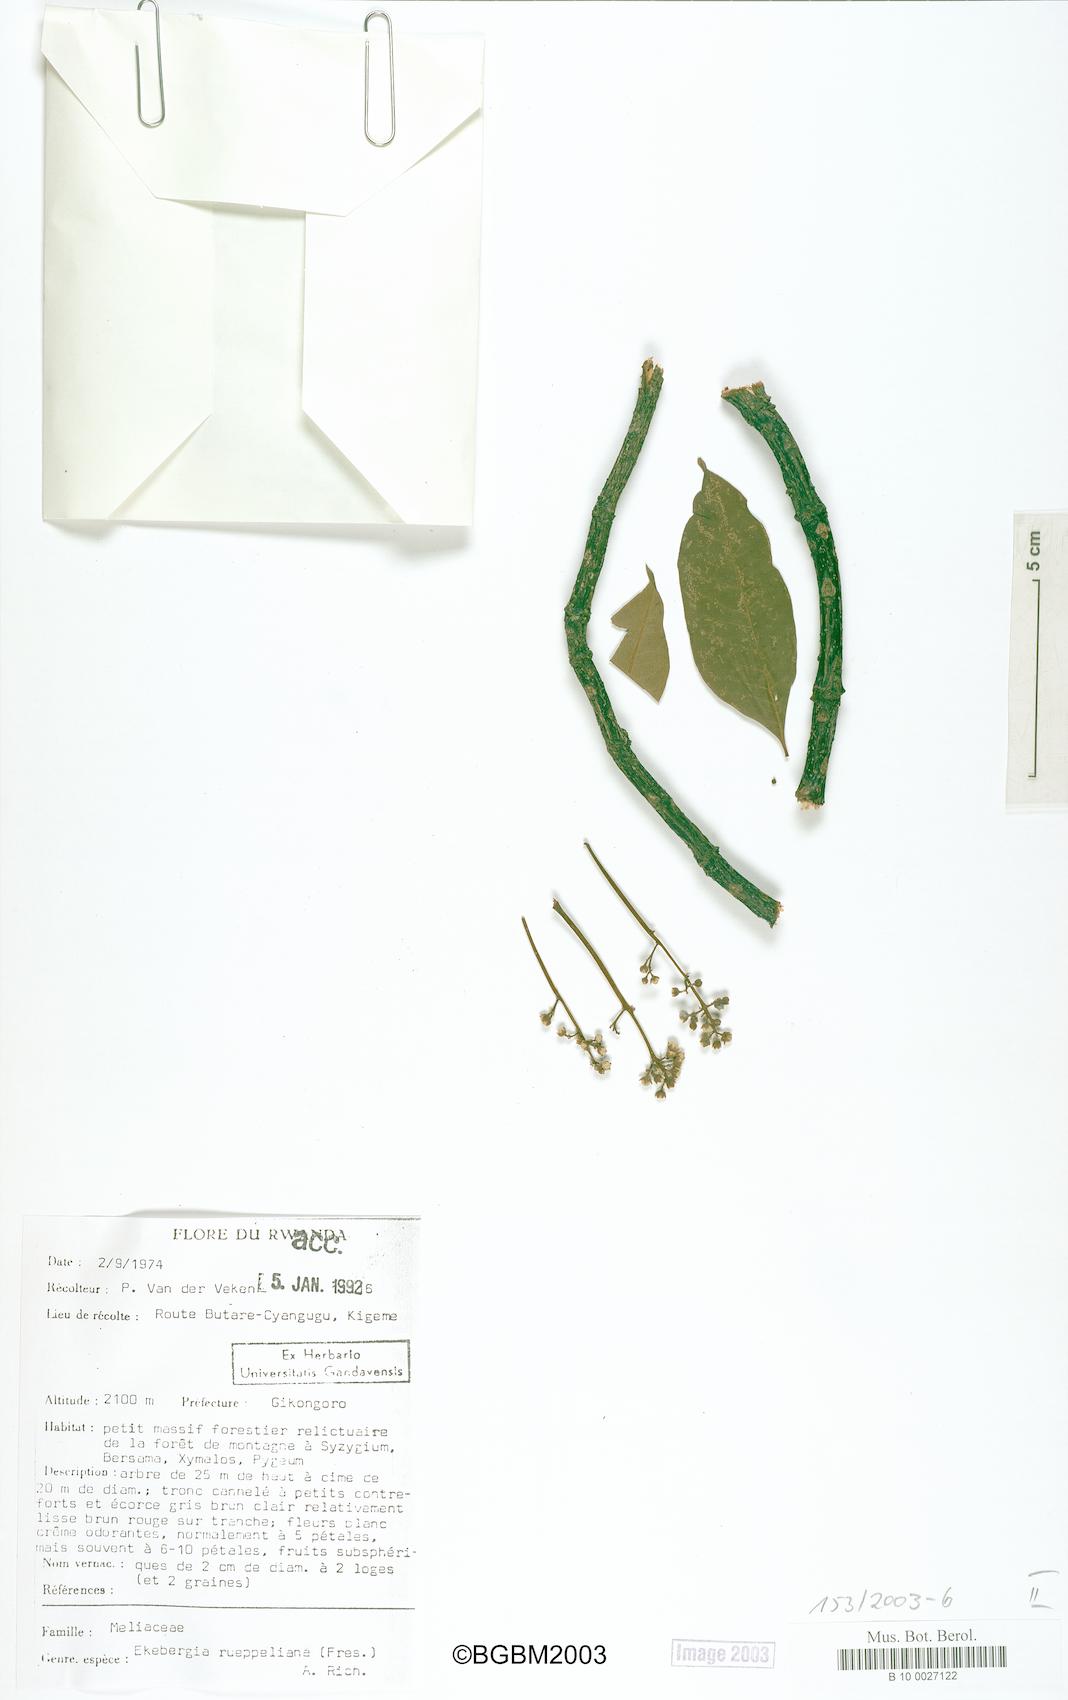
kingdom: Plantae
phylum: Tracheophyta
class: Magnoliopsida
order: Sapindales
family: Meliaceae
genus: Ekebergia
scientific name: Ekebergia capensis
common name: Cape-ash
